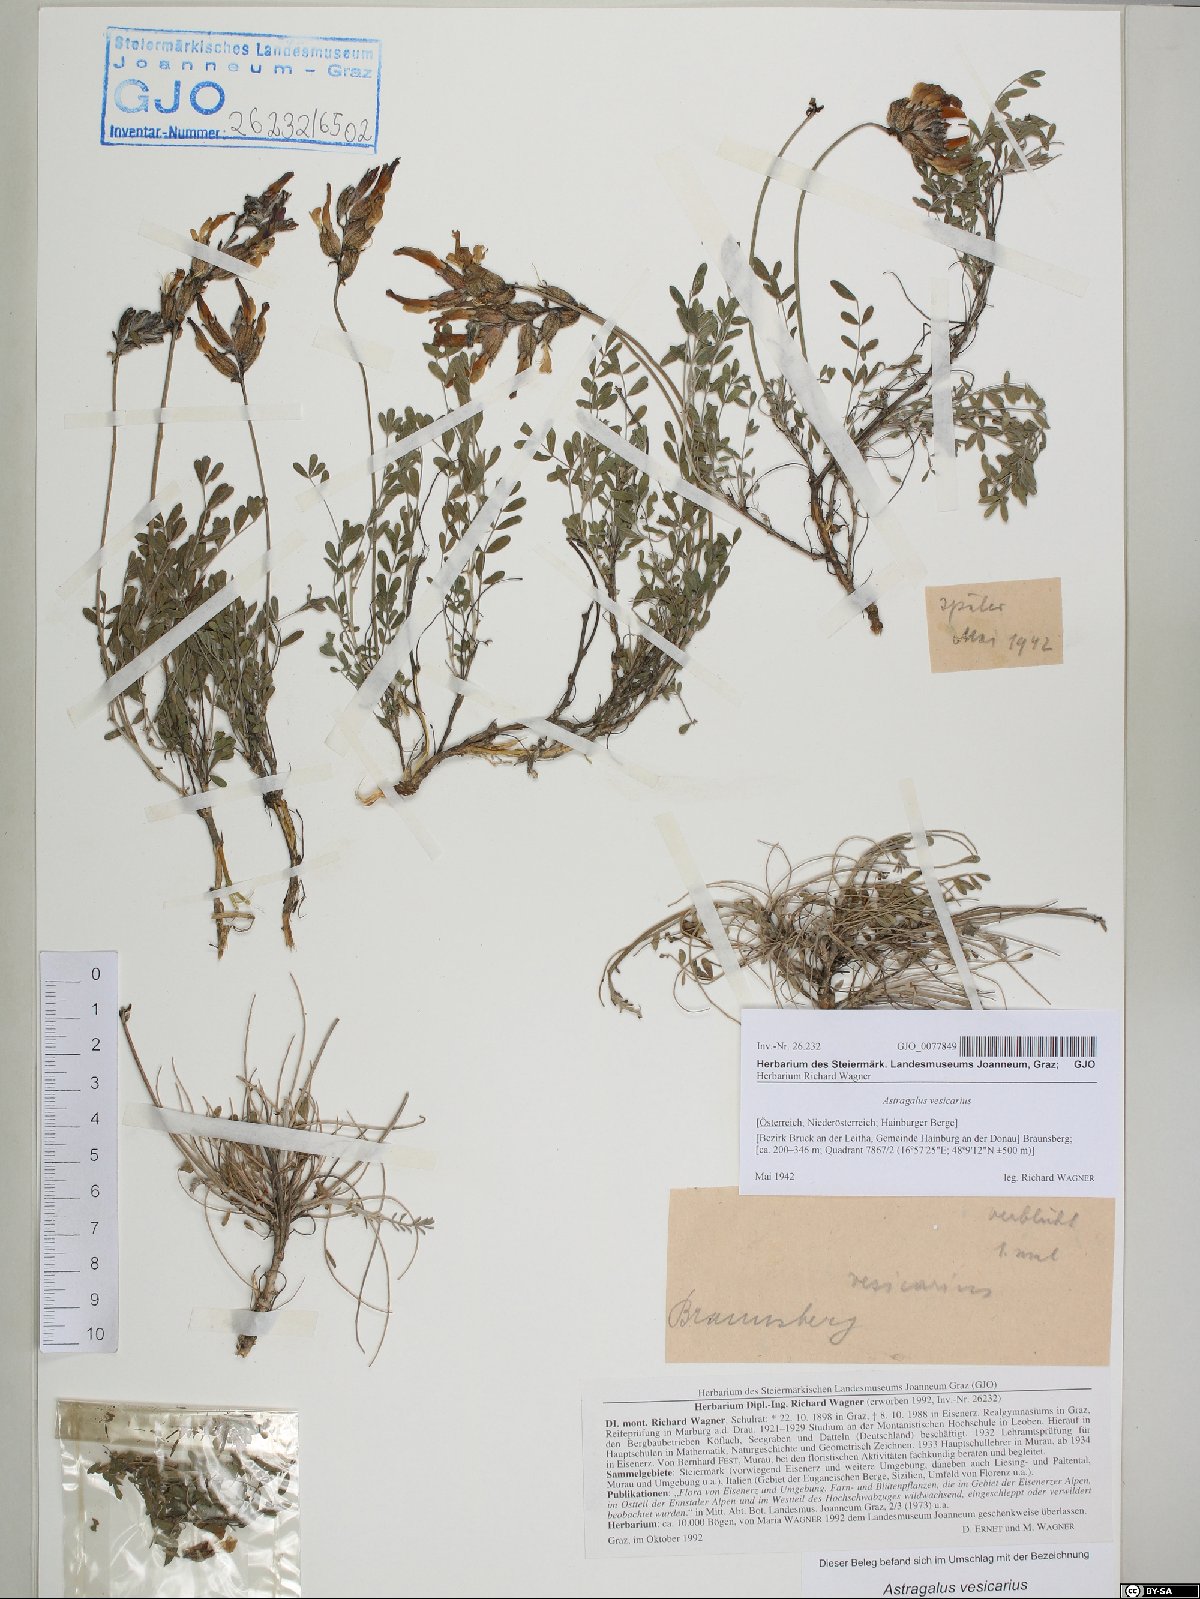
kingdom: Plantae
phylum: Tracheophyta
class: Magnoliopsida
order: Fabales
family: Fabaceae
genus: Astragalus
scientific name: Astragalus vesicarius
